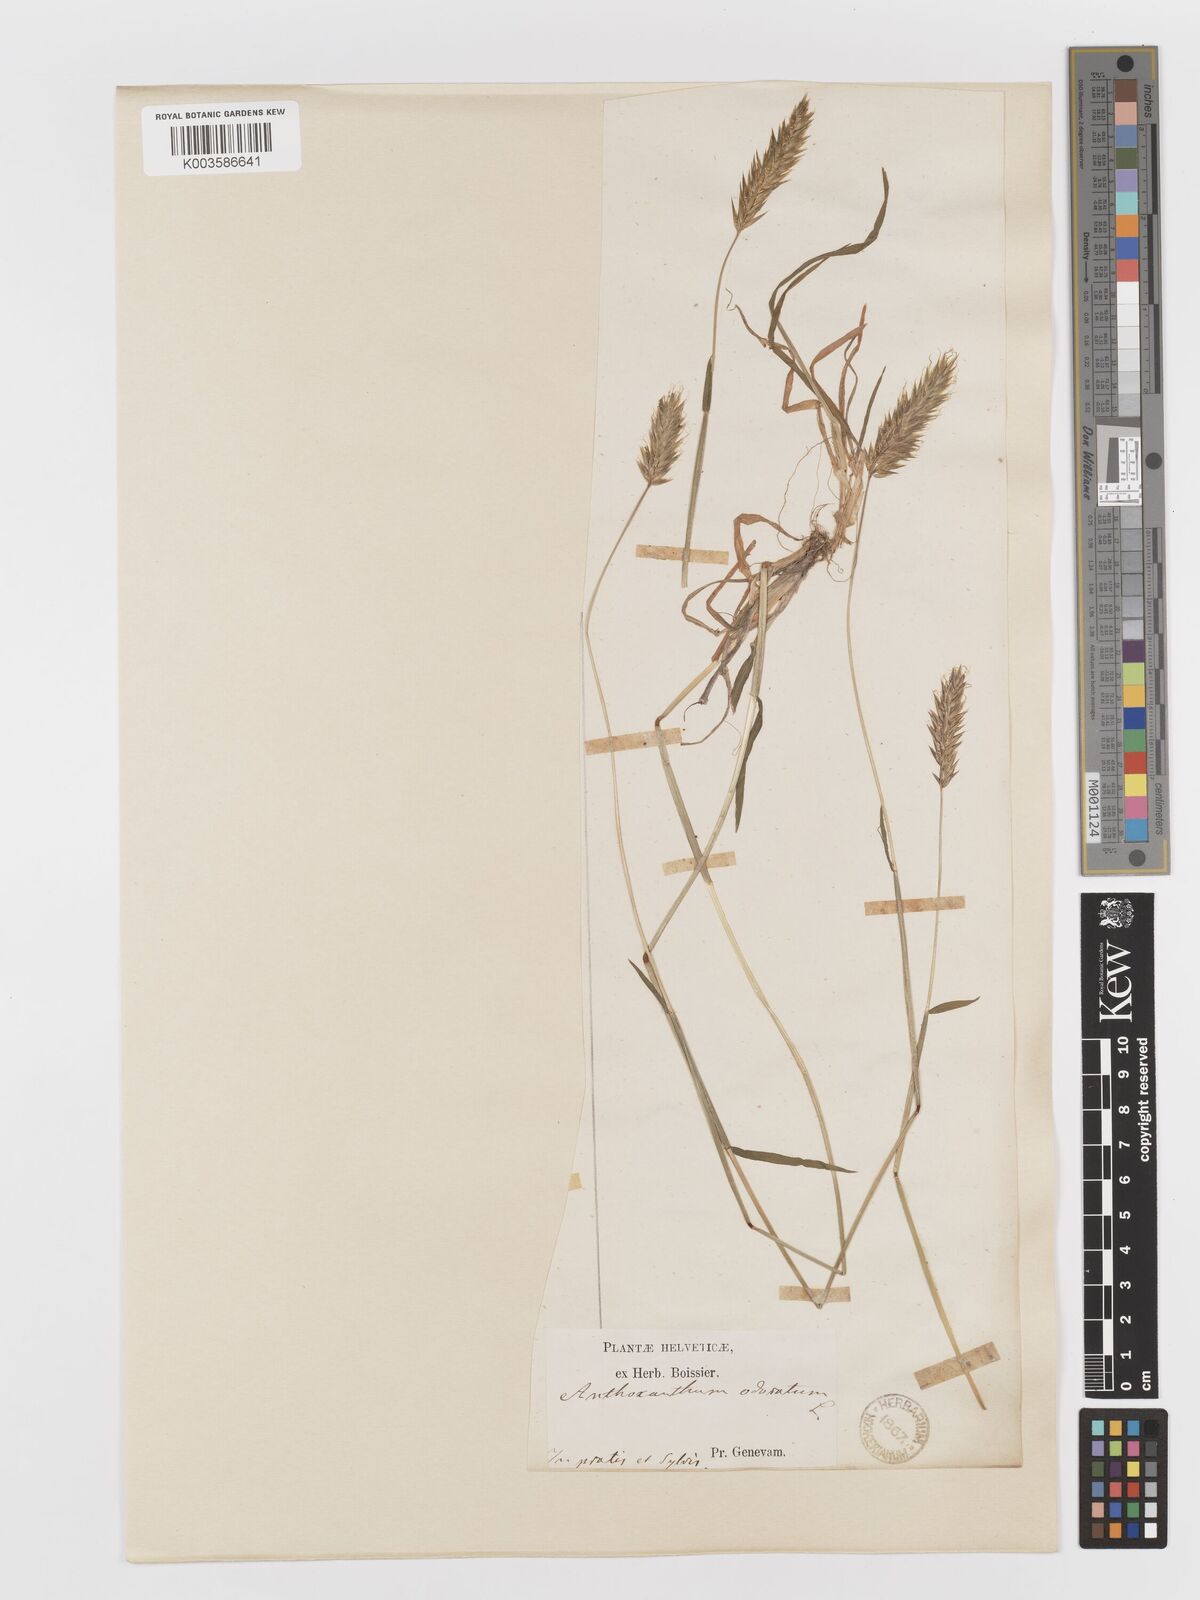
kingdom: Plantae
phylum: Tracheophyta
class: Liliopsida
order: Poales
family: Poaceae
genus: Anthoxanthum
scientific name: Anthoxanthum odoratum
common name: Sweet vernalgrass
